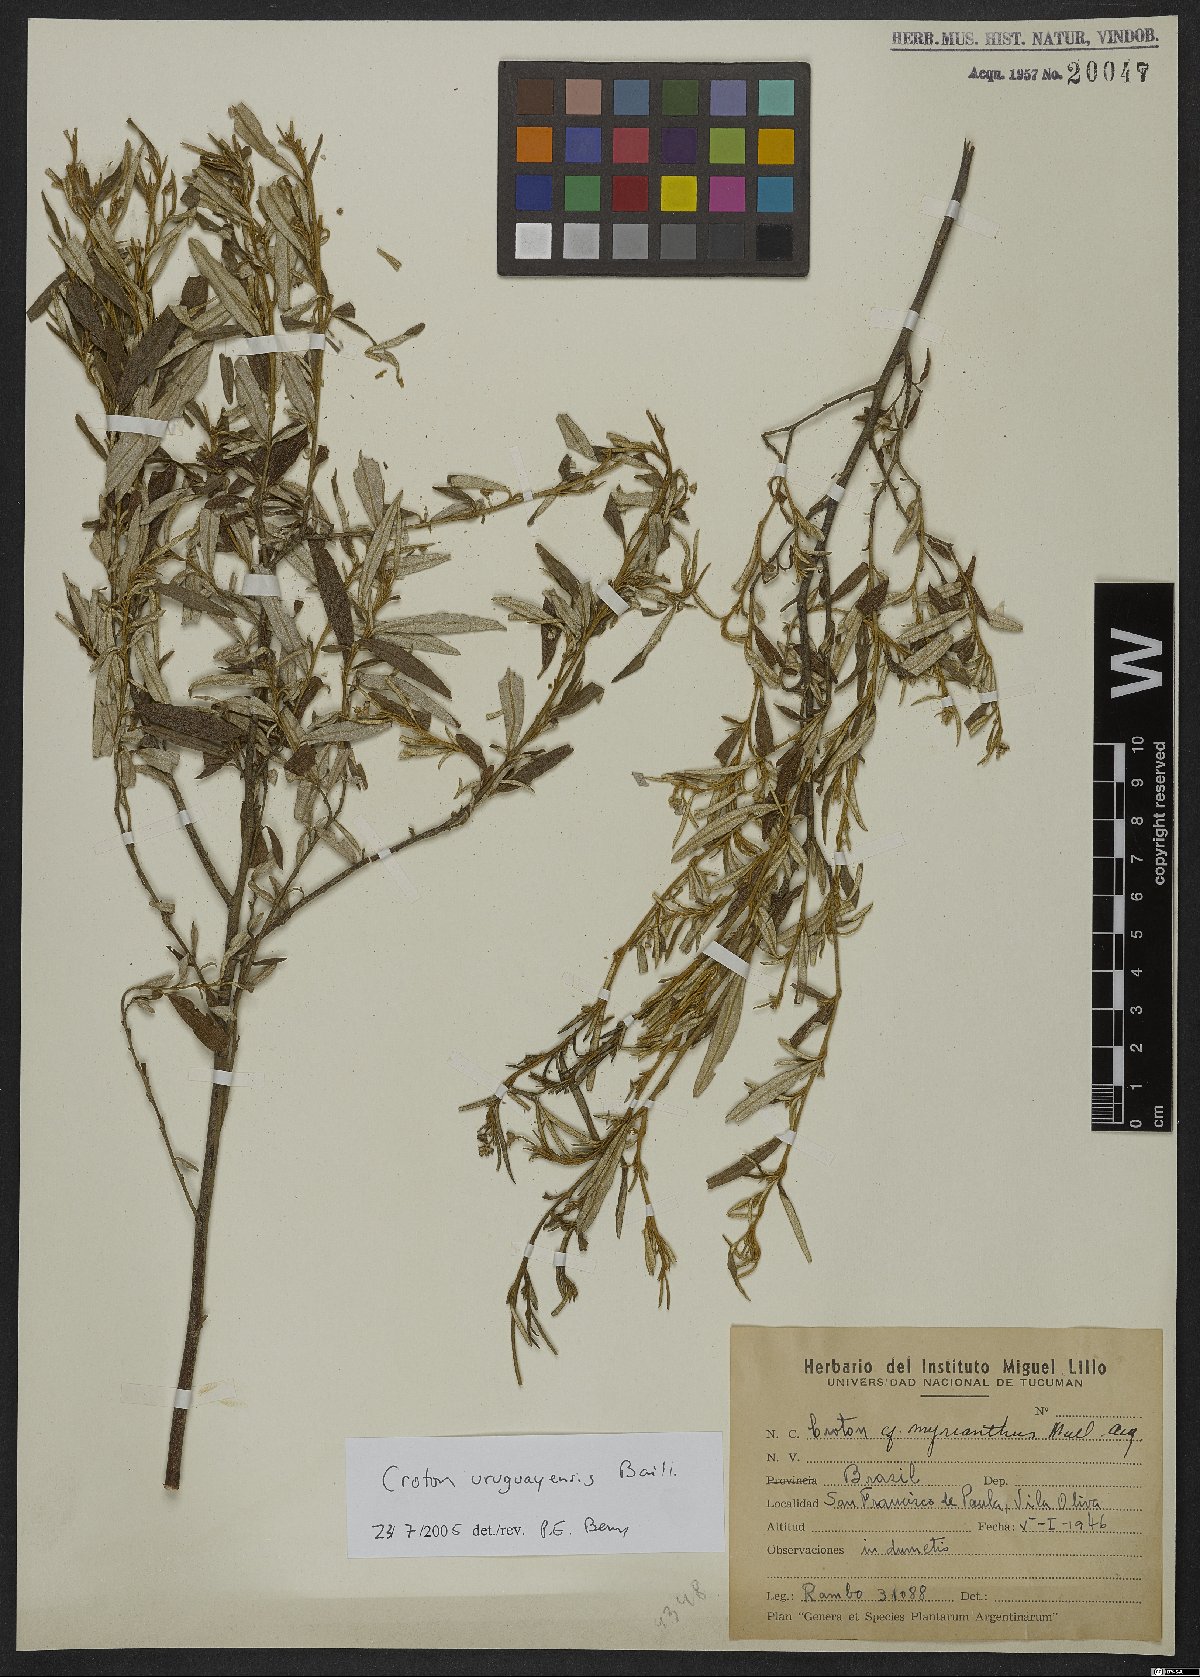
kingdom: Plantae
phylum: Tracheophyta
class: Magnoliopsida
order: Malpighiales
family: Euphorbiaceae
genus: Croton
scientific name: Croton urucurana
